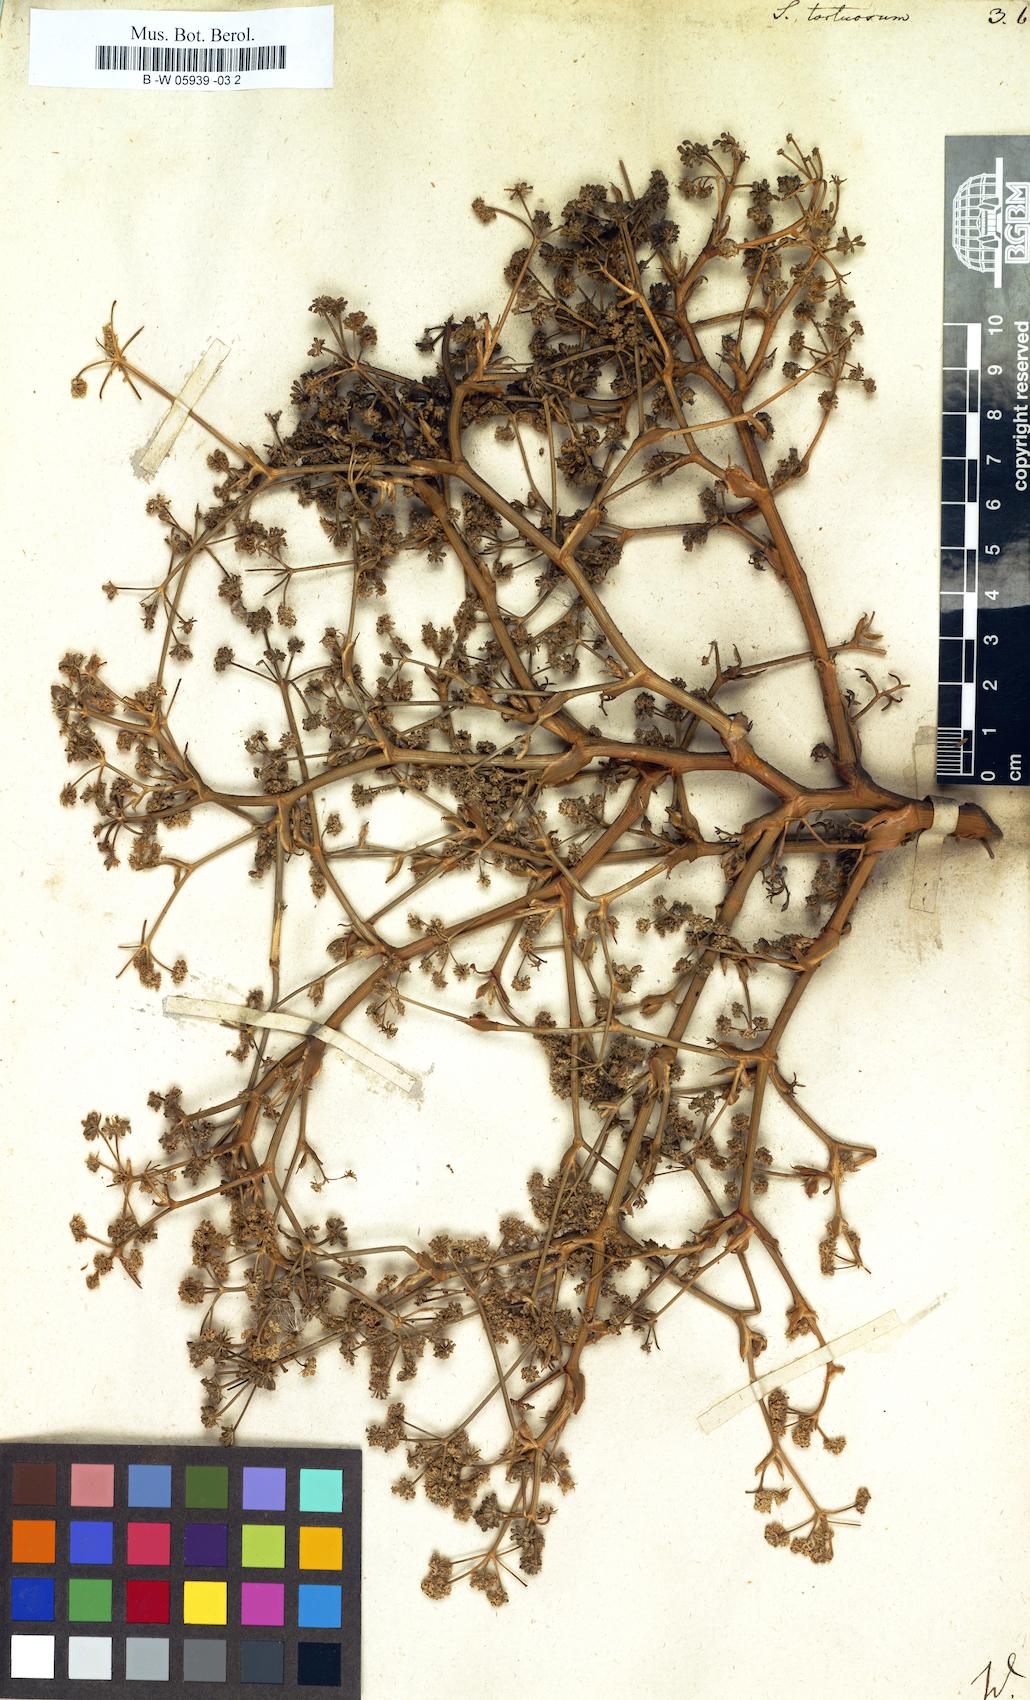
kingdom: Plantae
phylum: Tracheophyta
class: Magnoliopsida
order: Apiales
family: Apiaceae
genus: Seseli
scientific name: Seseli tortuosum
